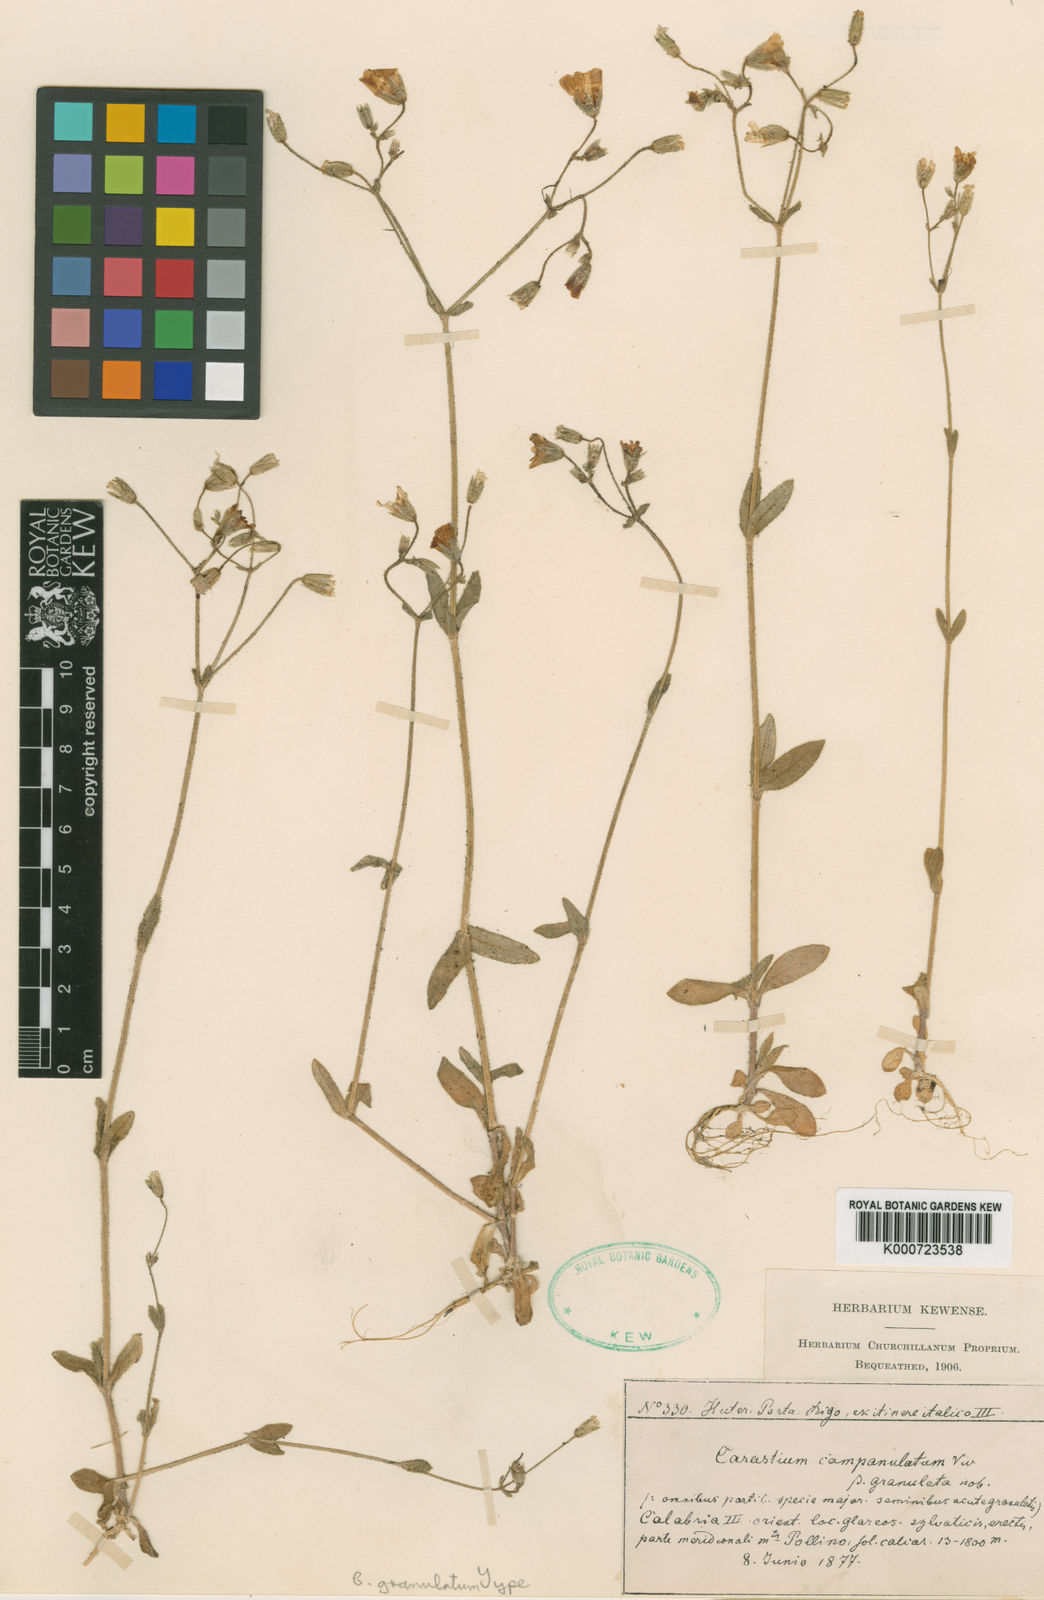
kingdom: Plantae
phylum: Tracheophyta
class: Magnoliopsida
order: Caryophyllales
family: Caryophyllaceae
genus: Cerastium
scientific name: Cerastium
